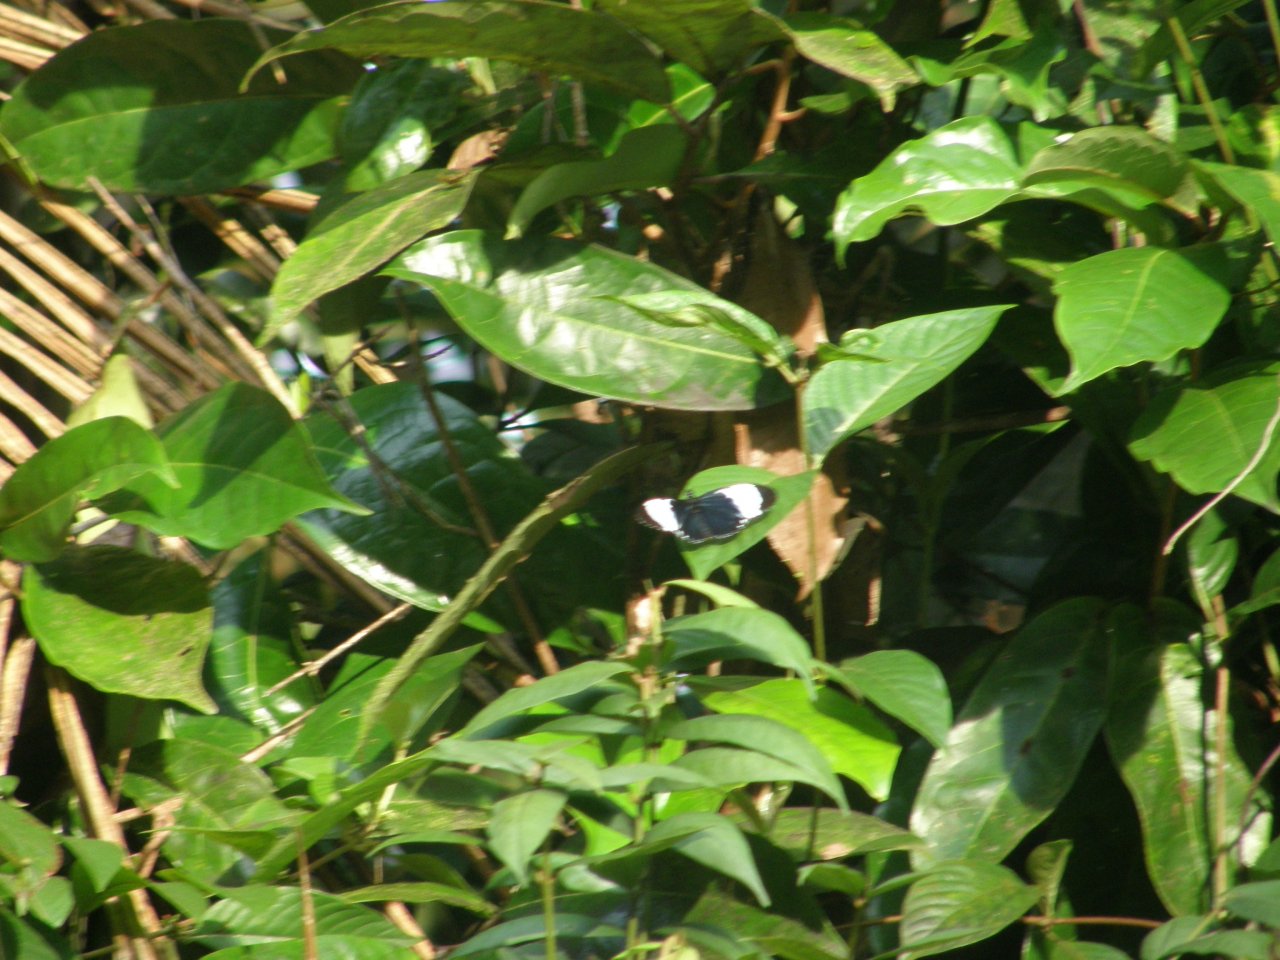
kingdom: Animalia
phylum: Arthropoda
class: Insecta
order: Lepidoptera
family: Nymphalidae
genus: Heliconius
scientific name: Heliconius cydno
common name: Cydno Longwing
